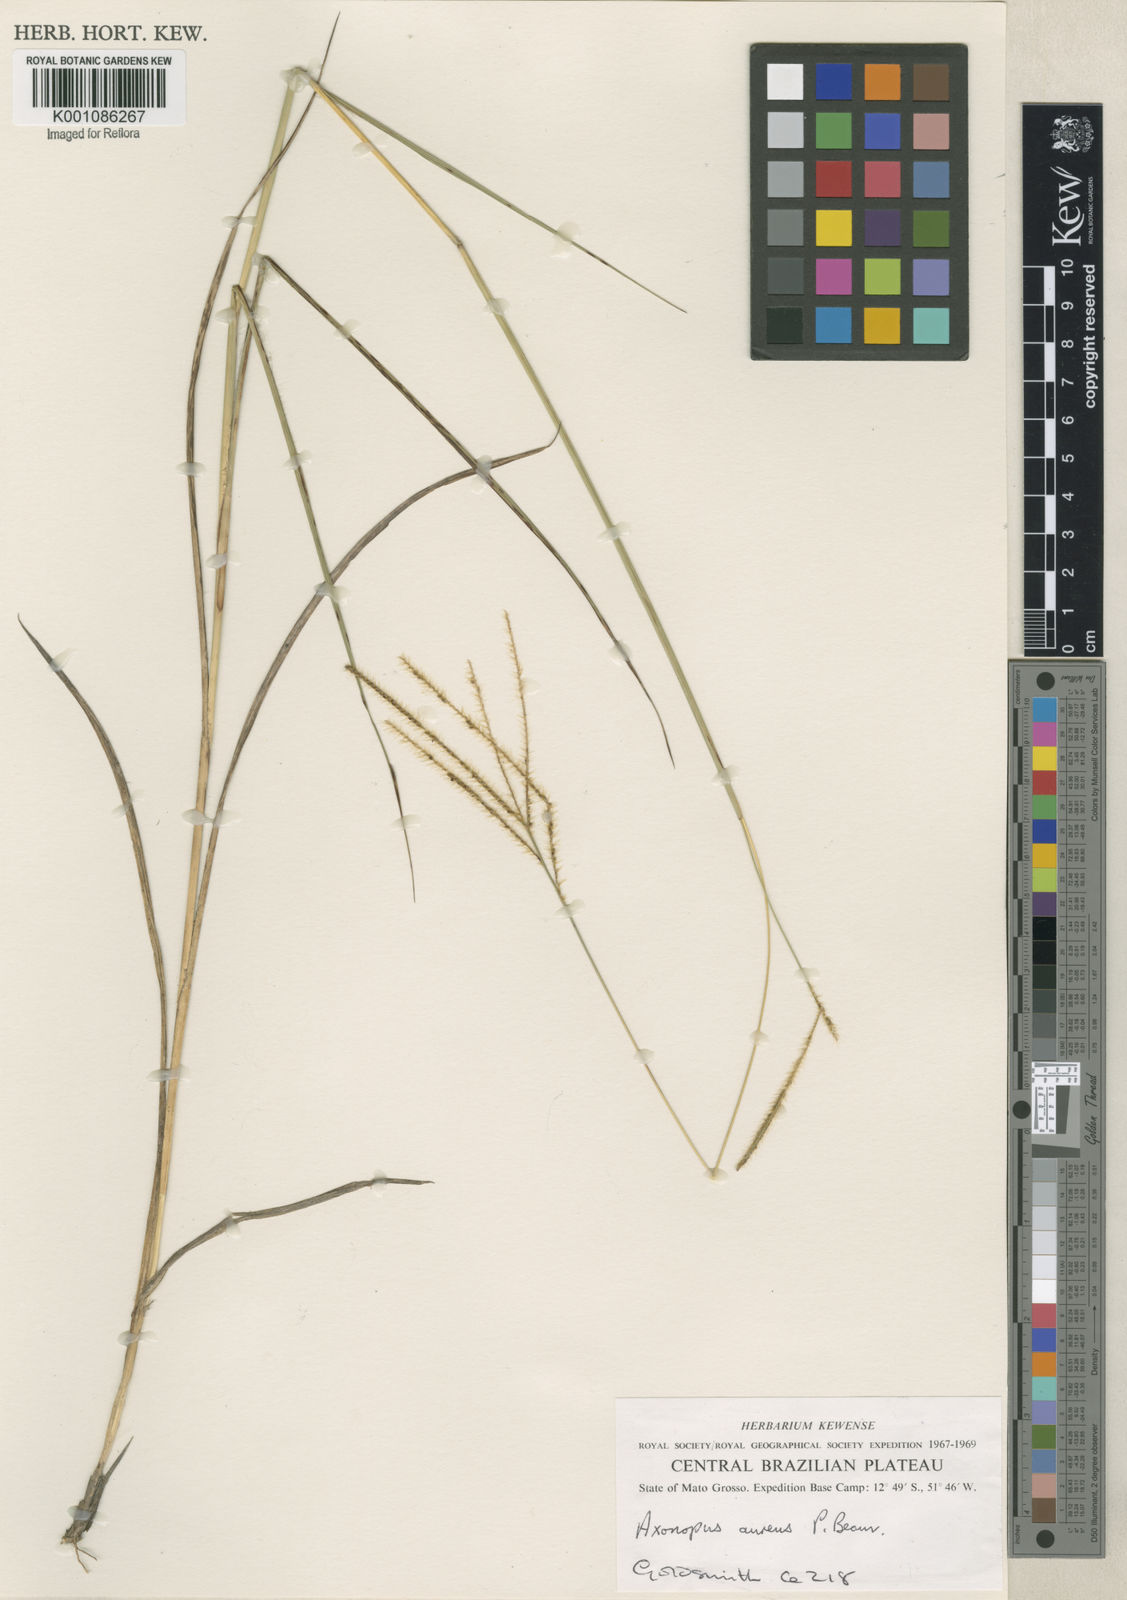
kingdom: Plantae
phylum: Tracheophyta
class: Liliopsida
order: Poales
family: Poaceae
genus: Axonopus
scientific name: Axonopus aureus
